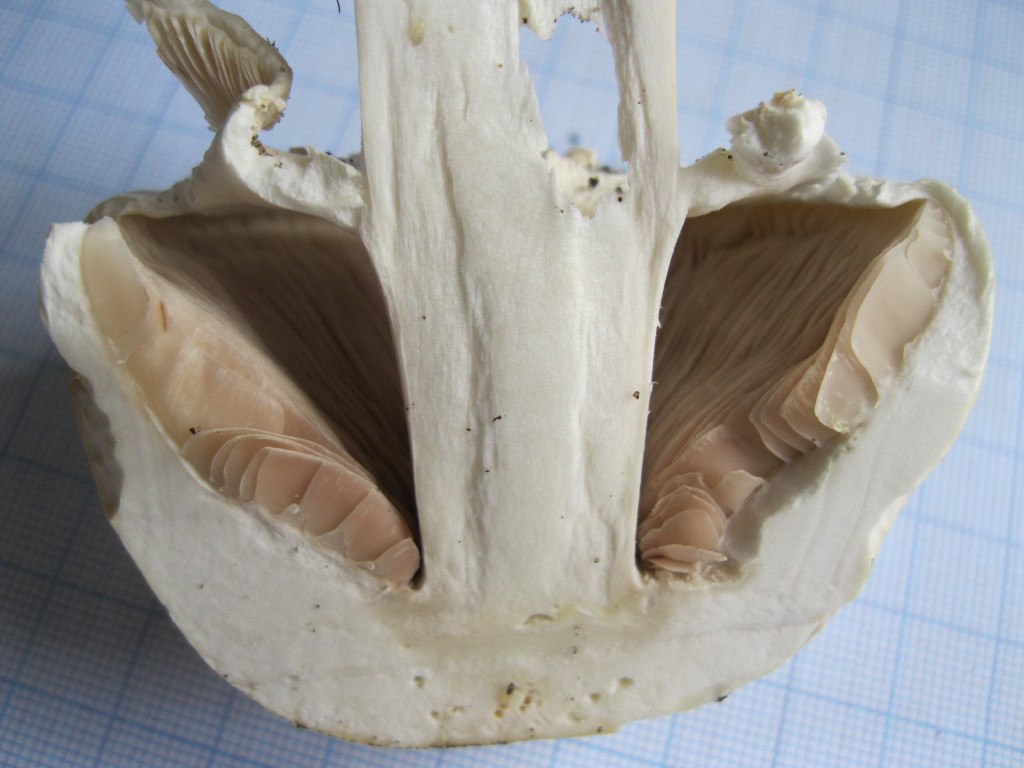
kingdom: Fungi
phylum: Basidiomycota
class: Agaricomycetes
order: Agaricales
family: Agaricaceae
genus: Agaricus
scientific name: Agaricus arvensis
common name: ager-champignon
